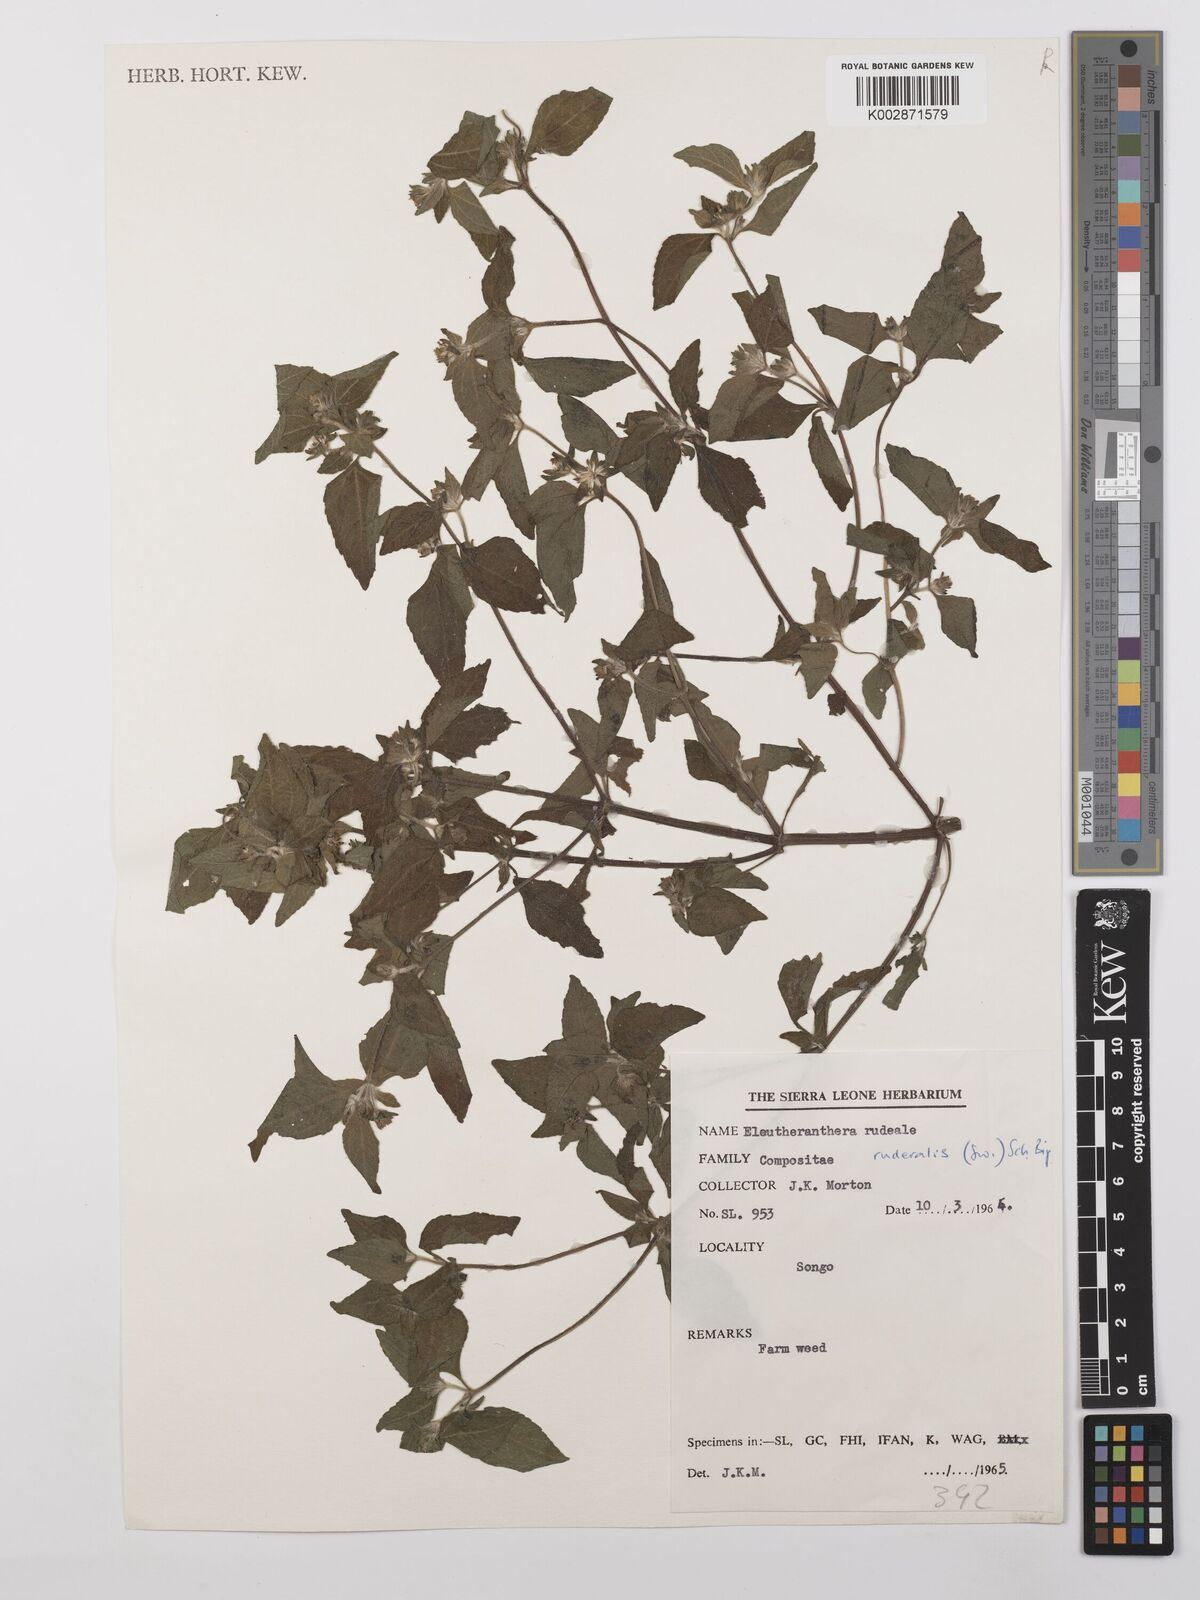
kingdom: Plantae
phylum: Tracheophyta
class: Magnoliopsida
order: Asterales
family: Asteraceae
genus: Eleutheranthera
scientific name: Eleutheranthera ruderalis
